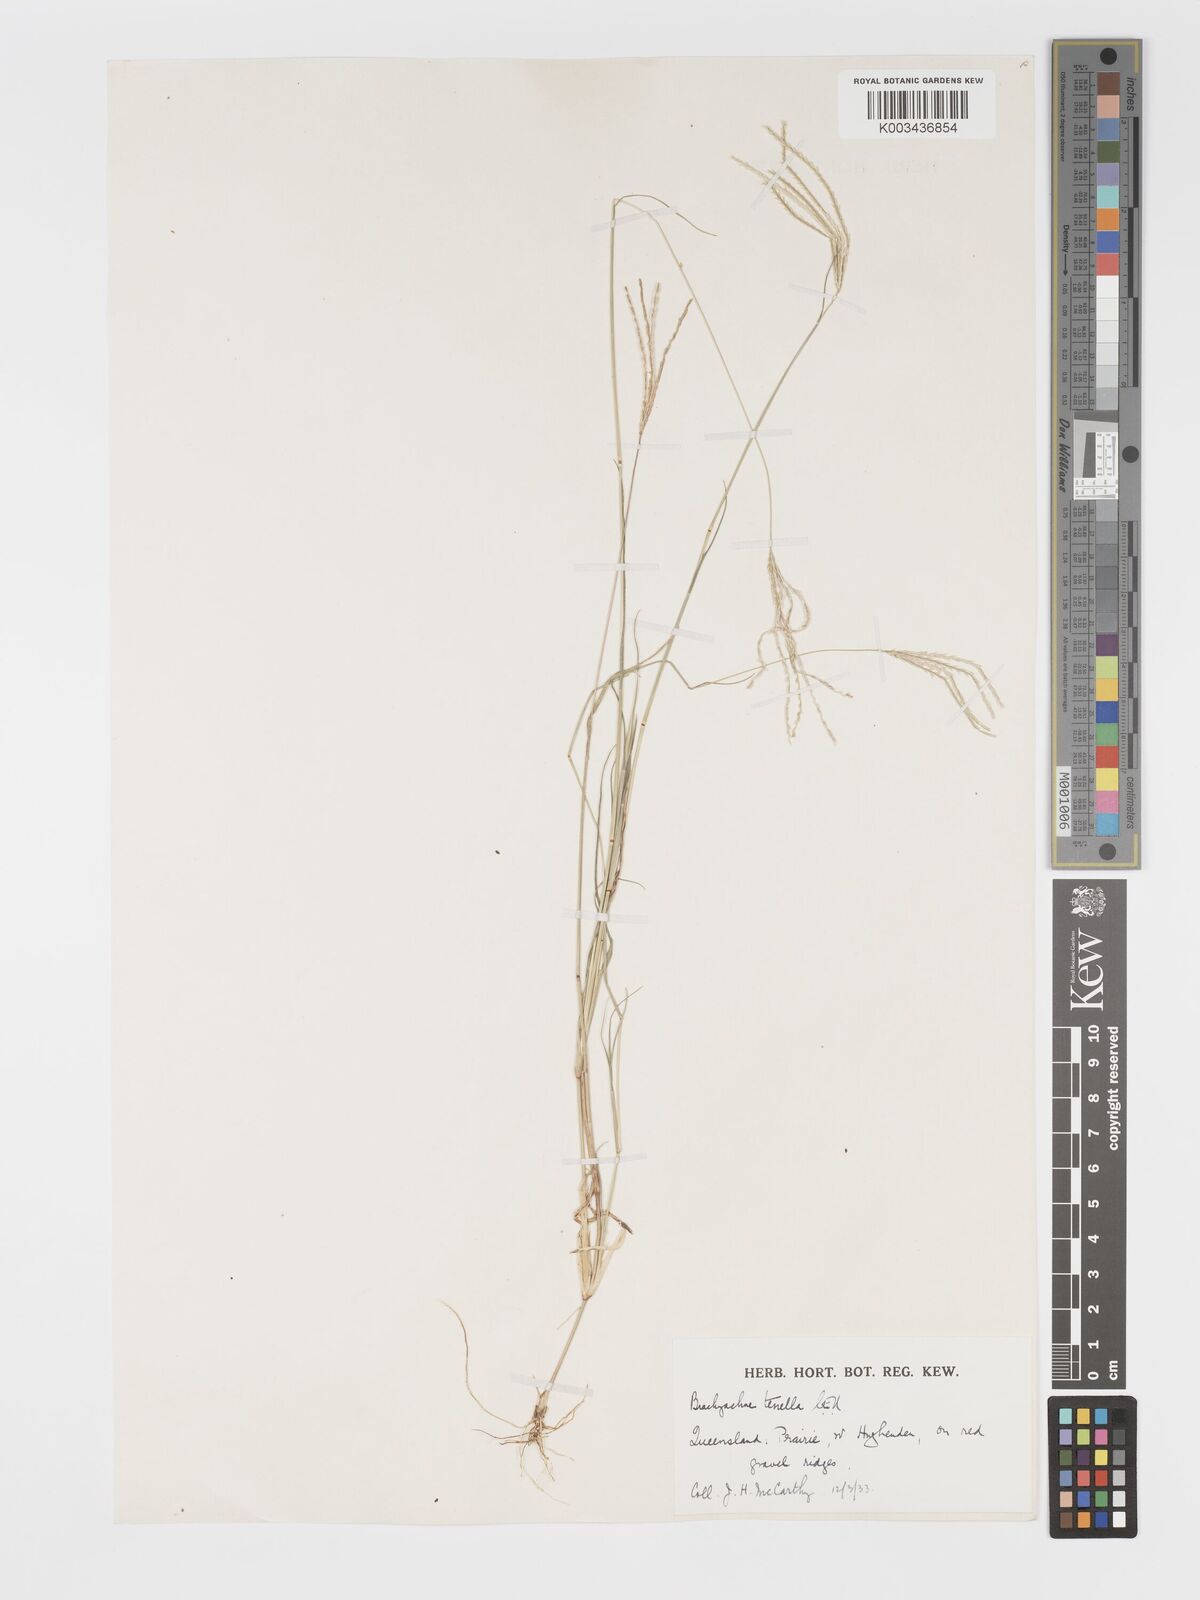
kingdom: Plantae
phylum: Tracheophyta
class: Liliopsida
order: Poales
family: Poaceae
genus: Cynodon
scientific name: Cynodon tenellus
